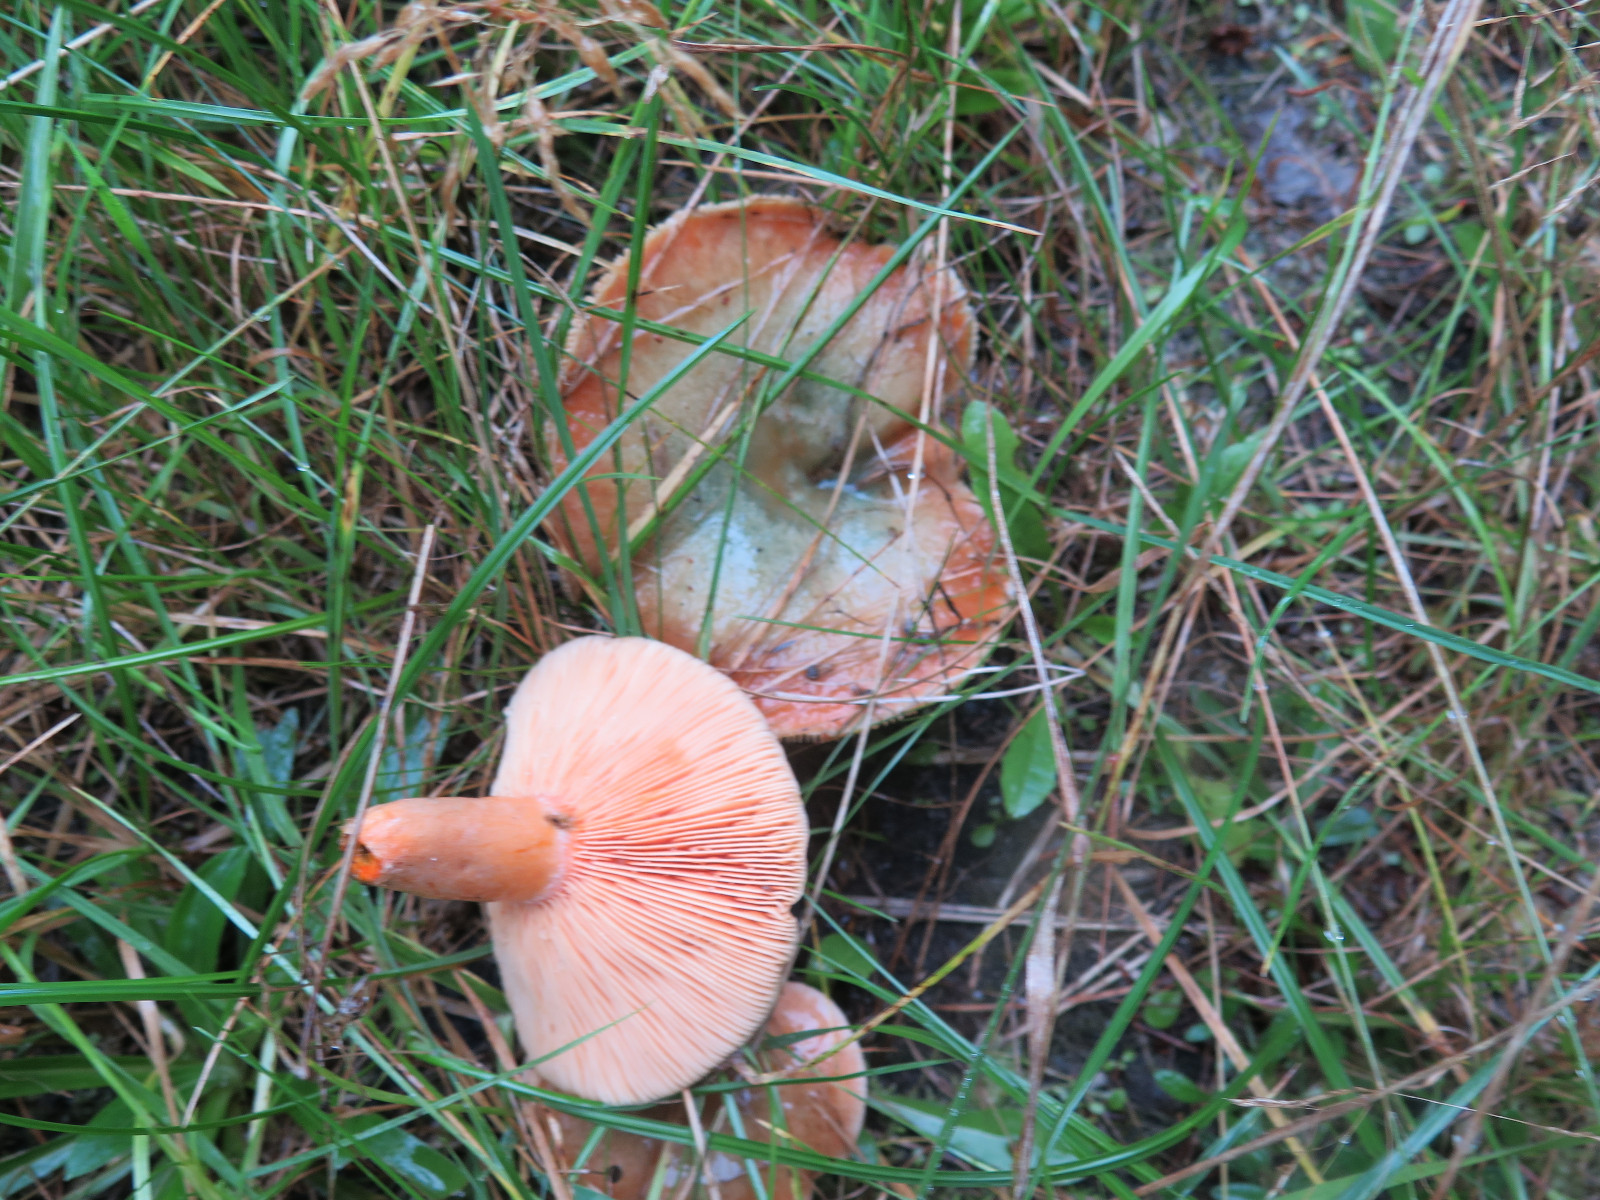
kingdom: Fungi
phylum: Basidiomycota
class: Agaricomycetes
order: Russulales
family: Russulaceae
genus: Lactarius
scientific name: Lactarius deterrimus
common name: gran-mælkehat
